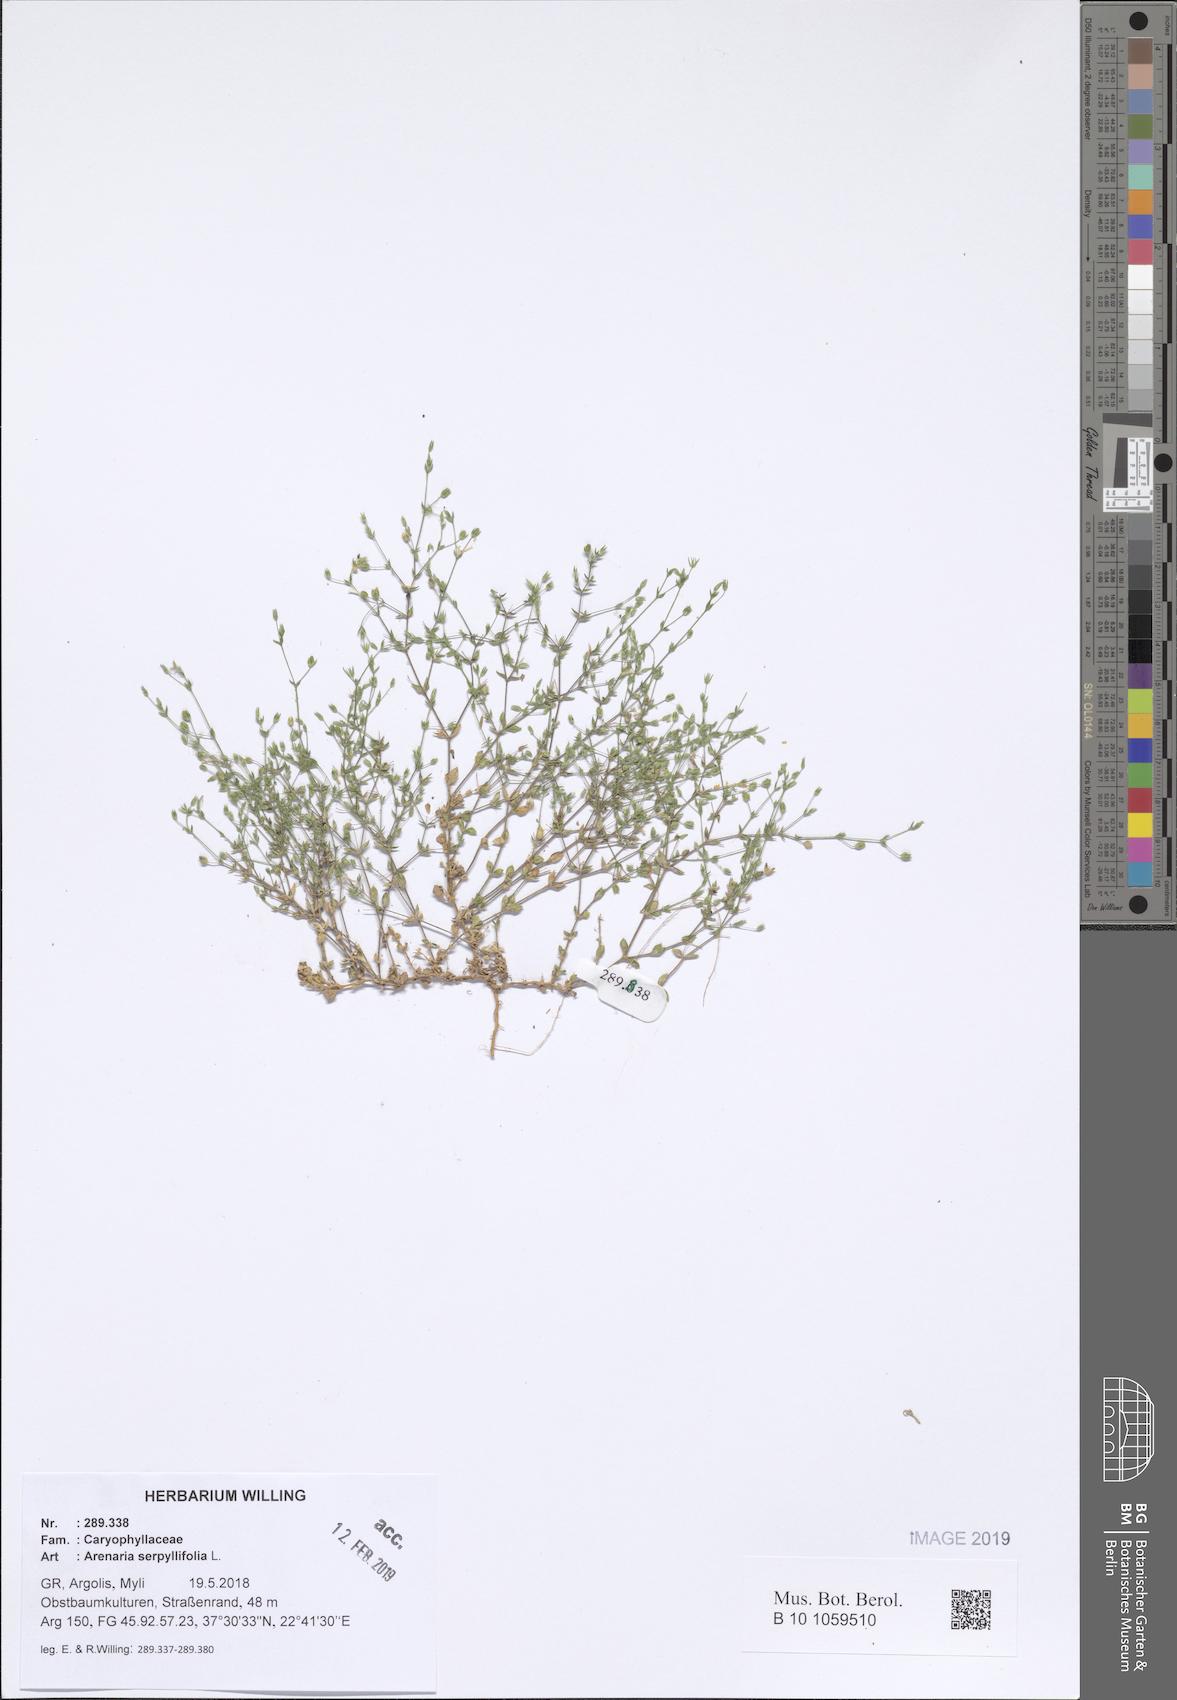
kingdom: Plantae
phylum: Tracheophyta
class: Magnoliopsida
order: Caryophyllales
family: Caryophyllaceae
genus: Arenaria
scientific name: Arenaria serpyllifolia
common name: Thyme-leaved sandwort
